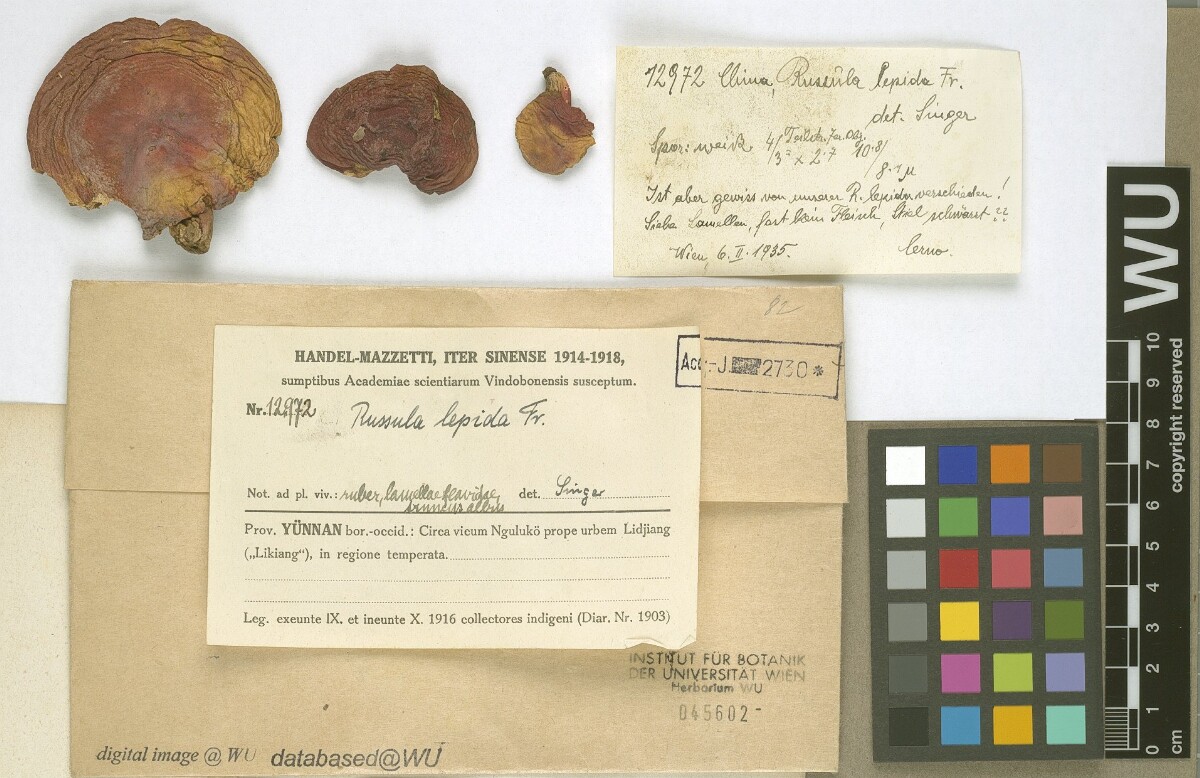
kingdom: Fungi
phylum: Basidiomycota
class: Agaricomycetes
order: Russulales
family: Russulaceae
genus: Russula
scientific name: Russula rosea
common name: Rosy brittlegill
